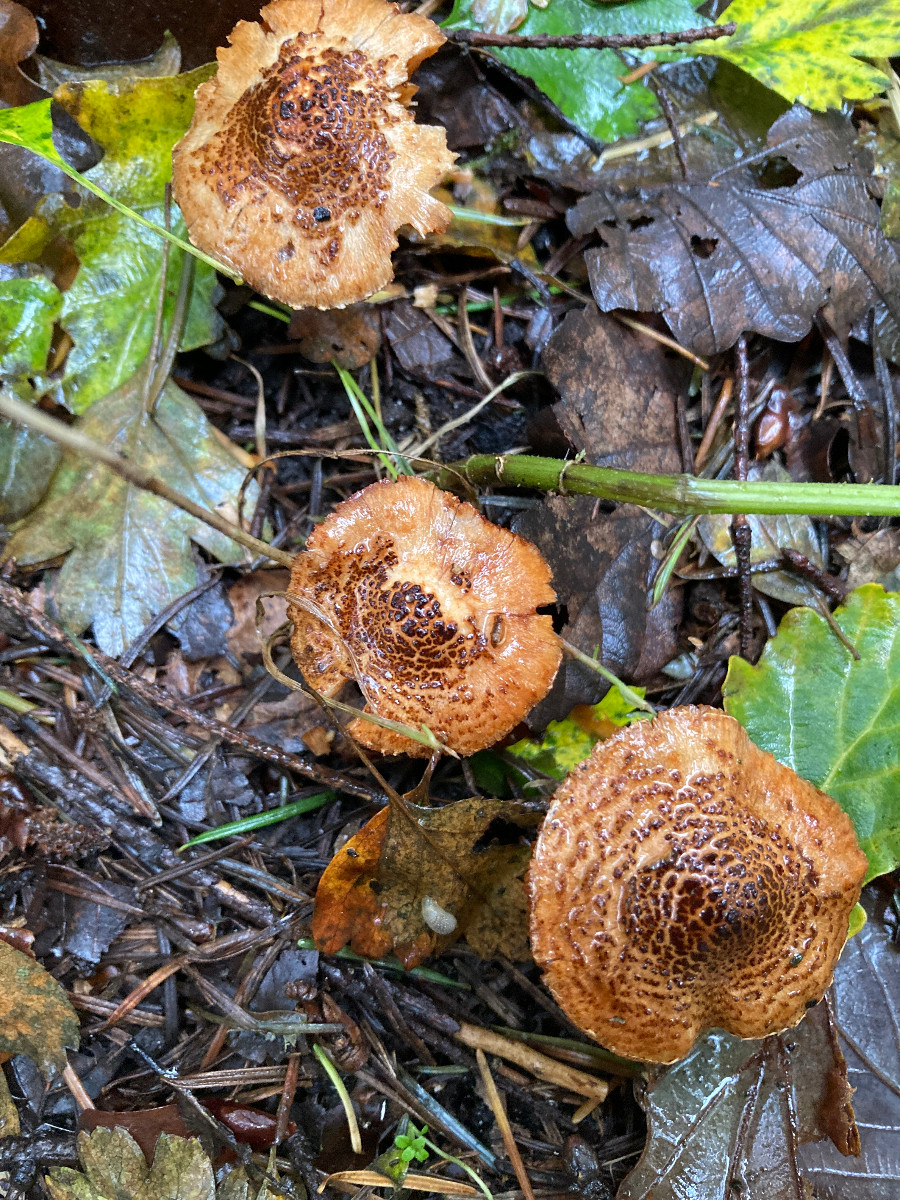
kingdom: Fungi
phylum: Basidiomycota
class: Agaricomycetes
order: Agaricales
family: Agaricaceae
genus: Lepiota
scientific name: Lepiota castanea
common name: kastaniebrun parasolhat
